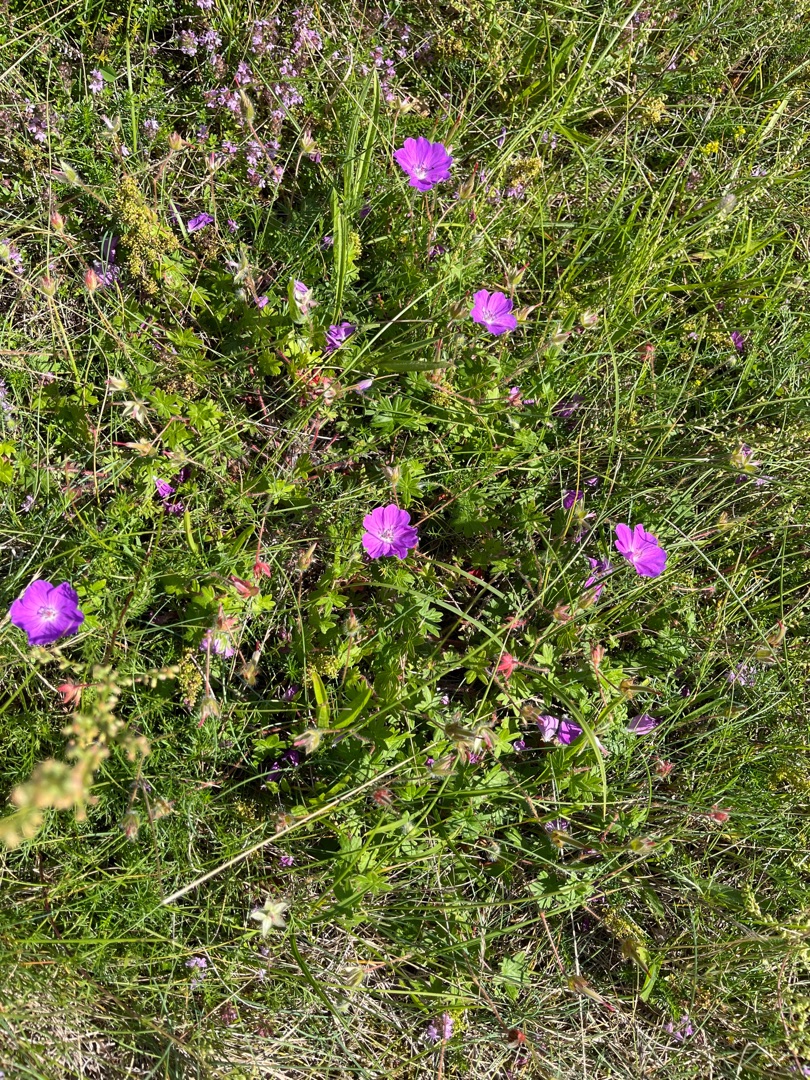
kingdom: Plantae
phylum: Tracheophyta
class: Magnoliopsida
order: Geraniales
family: Geraniaceae
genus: Geranium
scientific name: Geranium sanguineum
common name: Blodrød storkenæb
